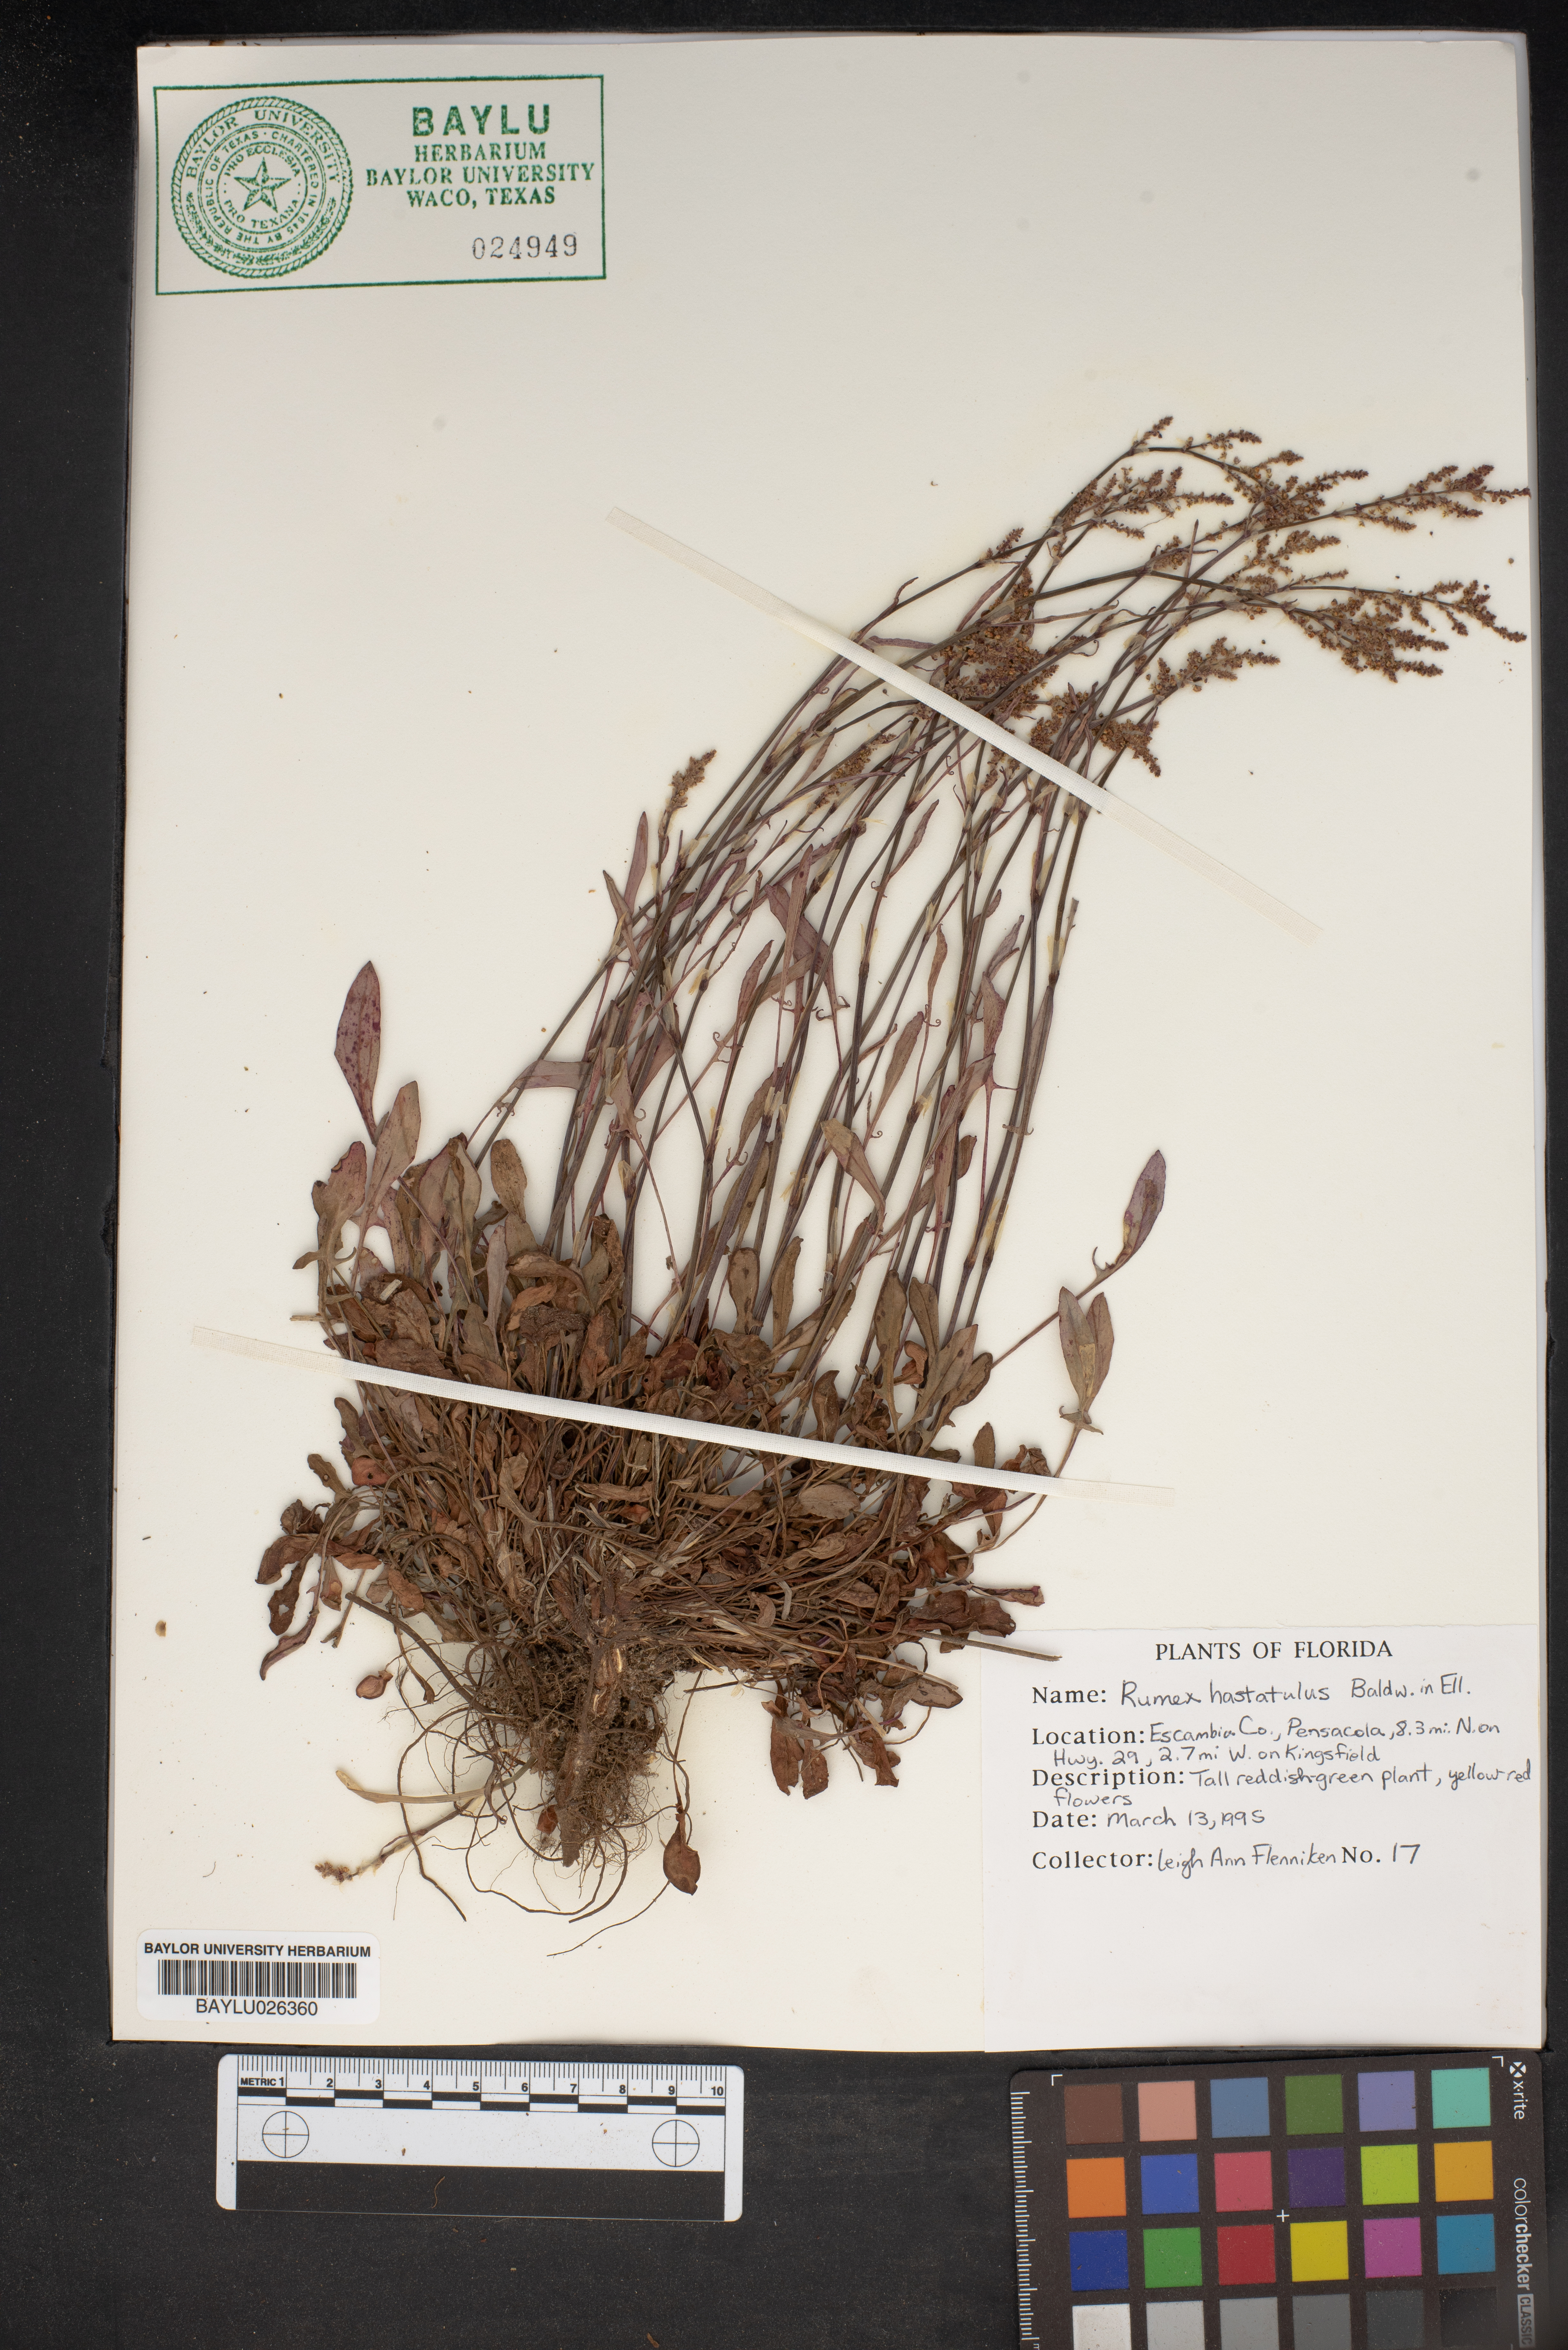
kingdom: Plantae
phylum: Tracheophyta
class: Magnoliopsida
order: Caryophyllales
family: Polygonaceae
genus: Rumex
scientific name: Rumex hastatulus
